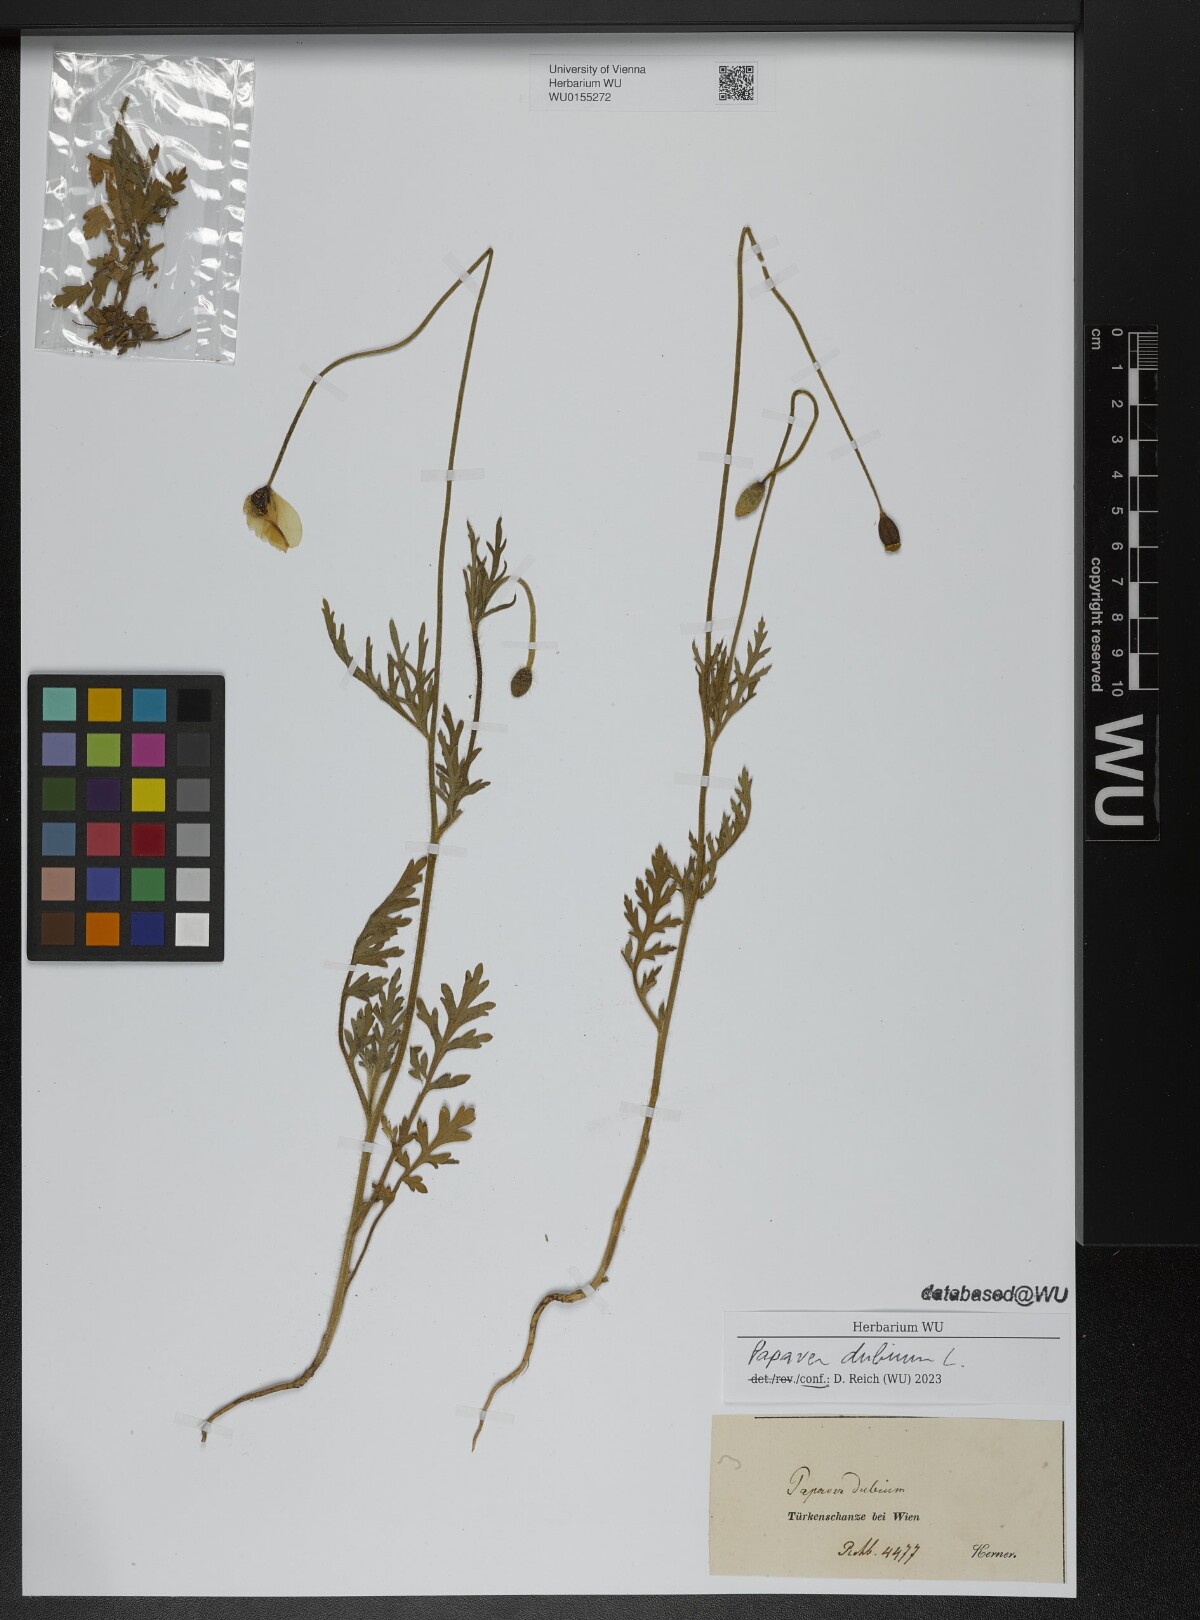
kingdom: Plantae
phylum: Tracheophyta
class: Magnoliopsida
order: Ranunculales
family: Papaveraceae
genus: Papaver
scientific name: Papaver dubium
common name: Long-headed poppy
